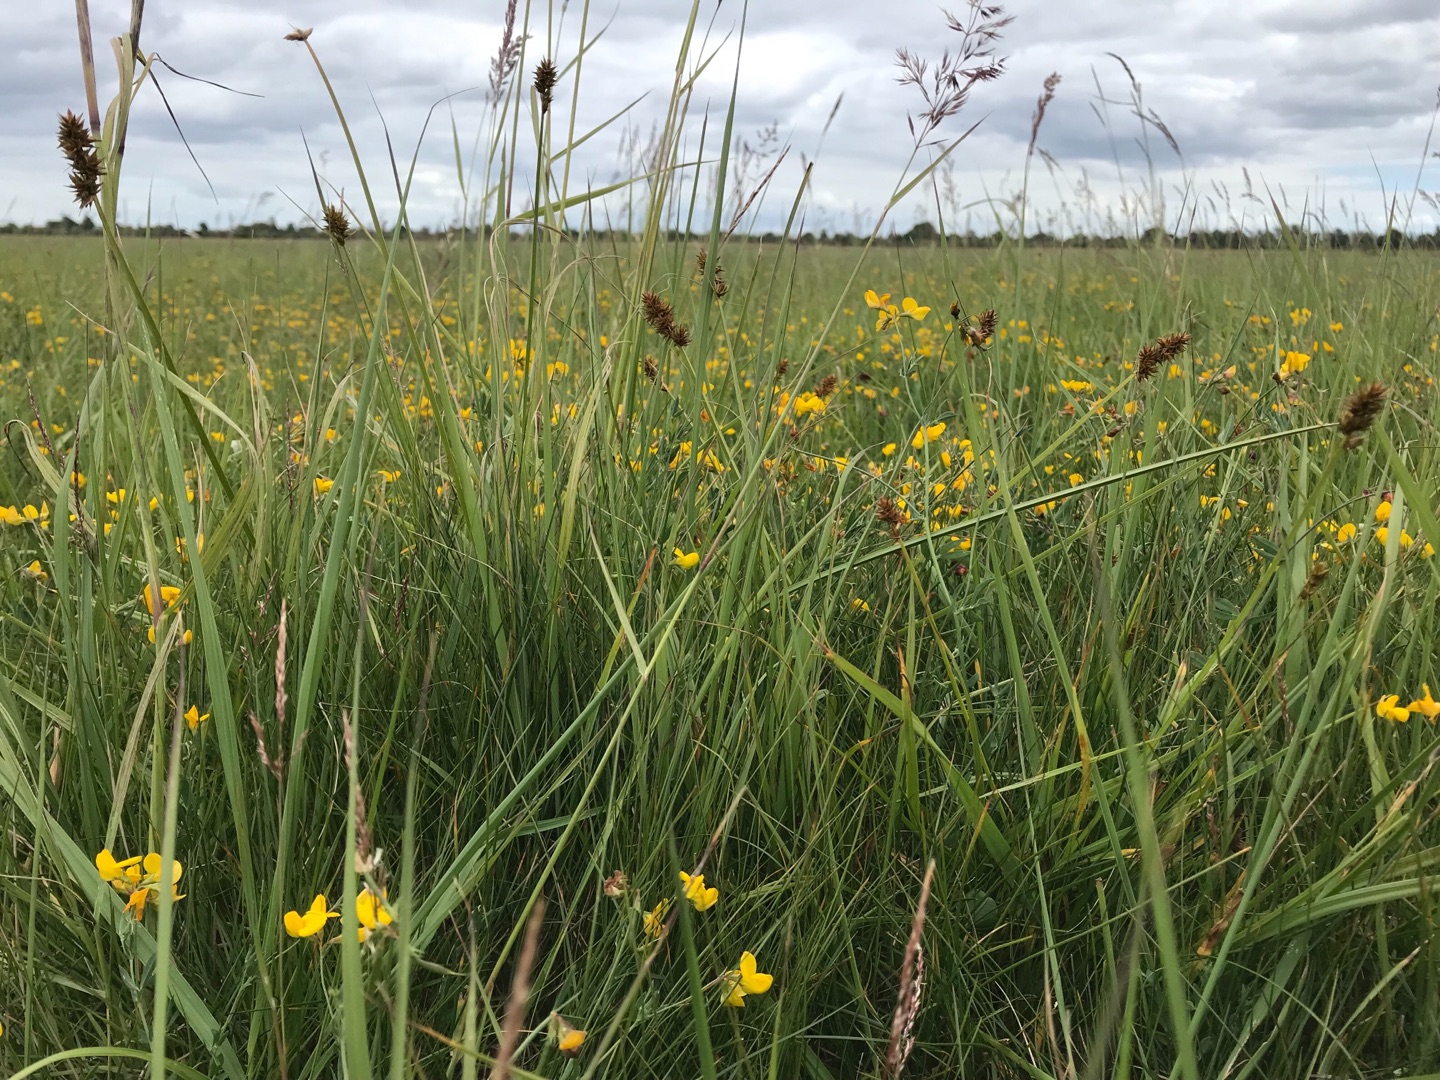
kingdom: Plantae
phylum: Tracheophyta
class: Liliopsida
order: Poales
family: Cyperaceae
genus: Carex
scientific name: Carex otrubae
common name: Sylt-star
